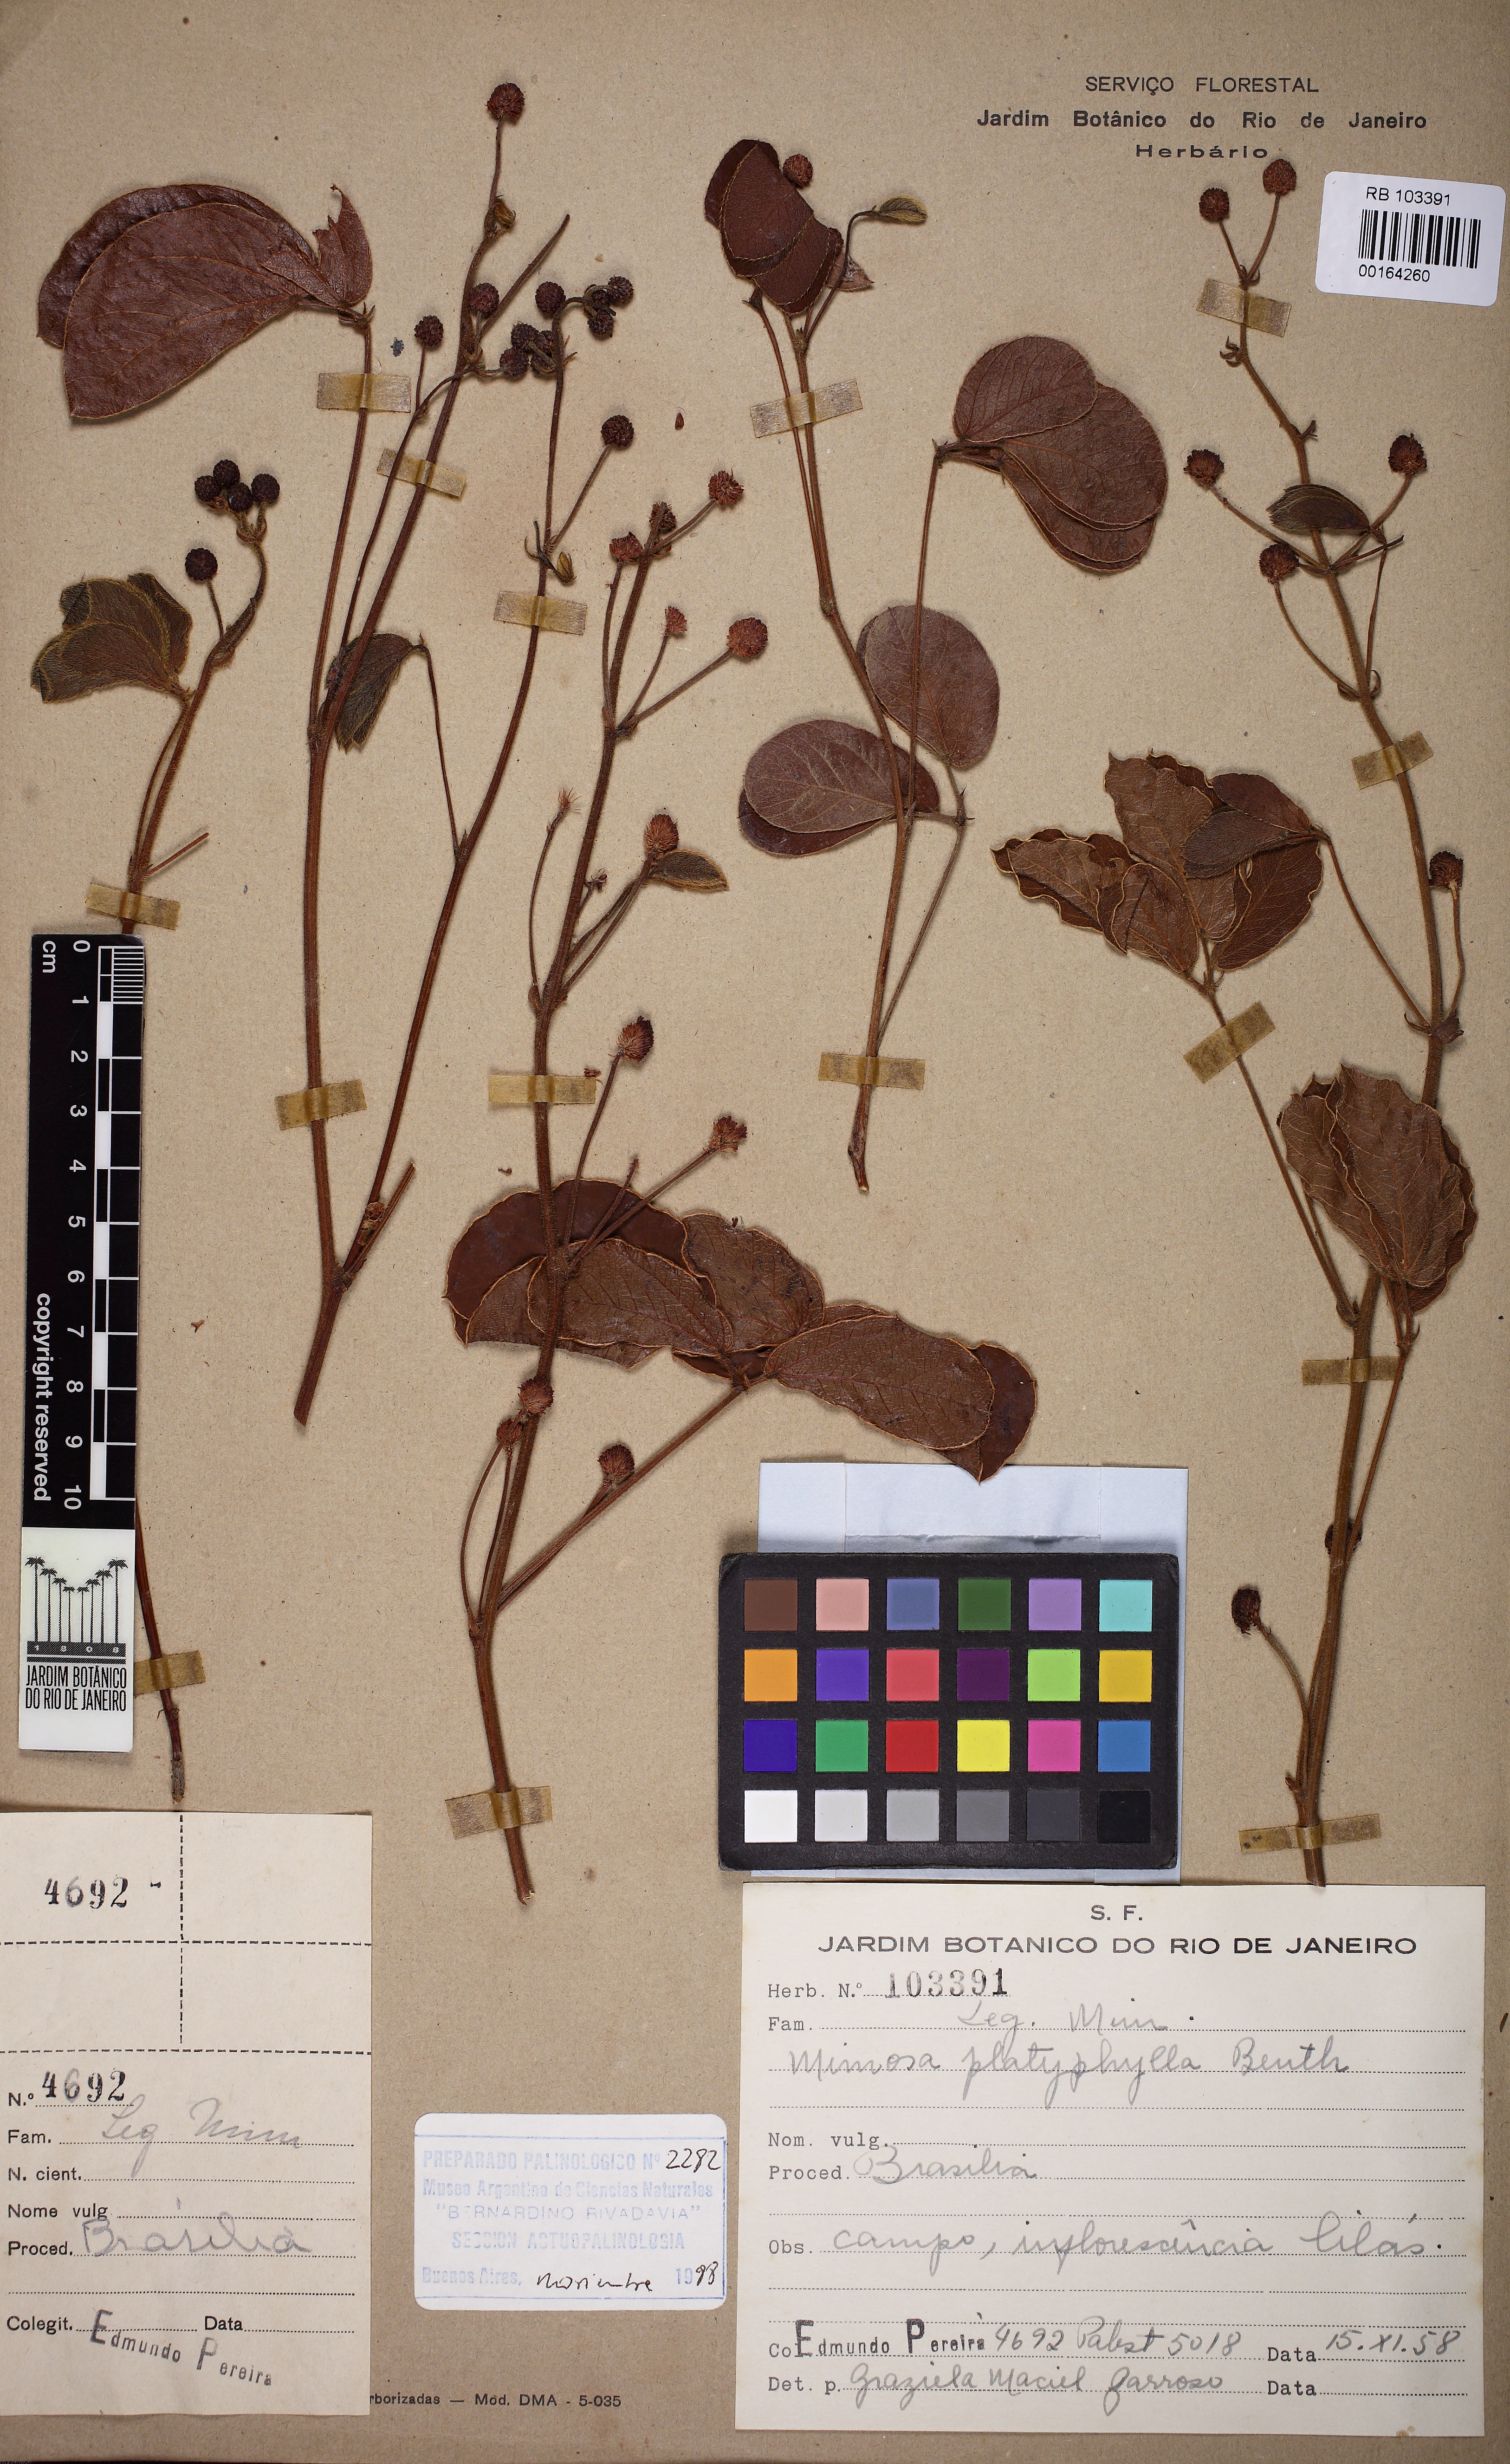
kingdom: Plantae
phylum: Tracheophyta
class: Magnoliopsida
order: Fabales
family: Fabaceae
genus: Mimosa
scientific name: Mimosa platyphylla
